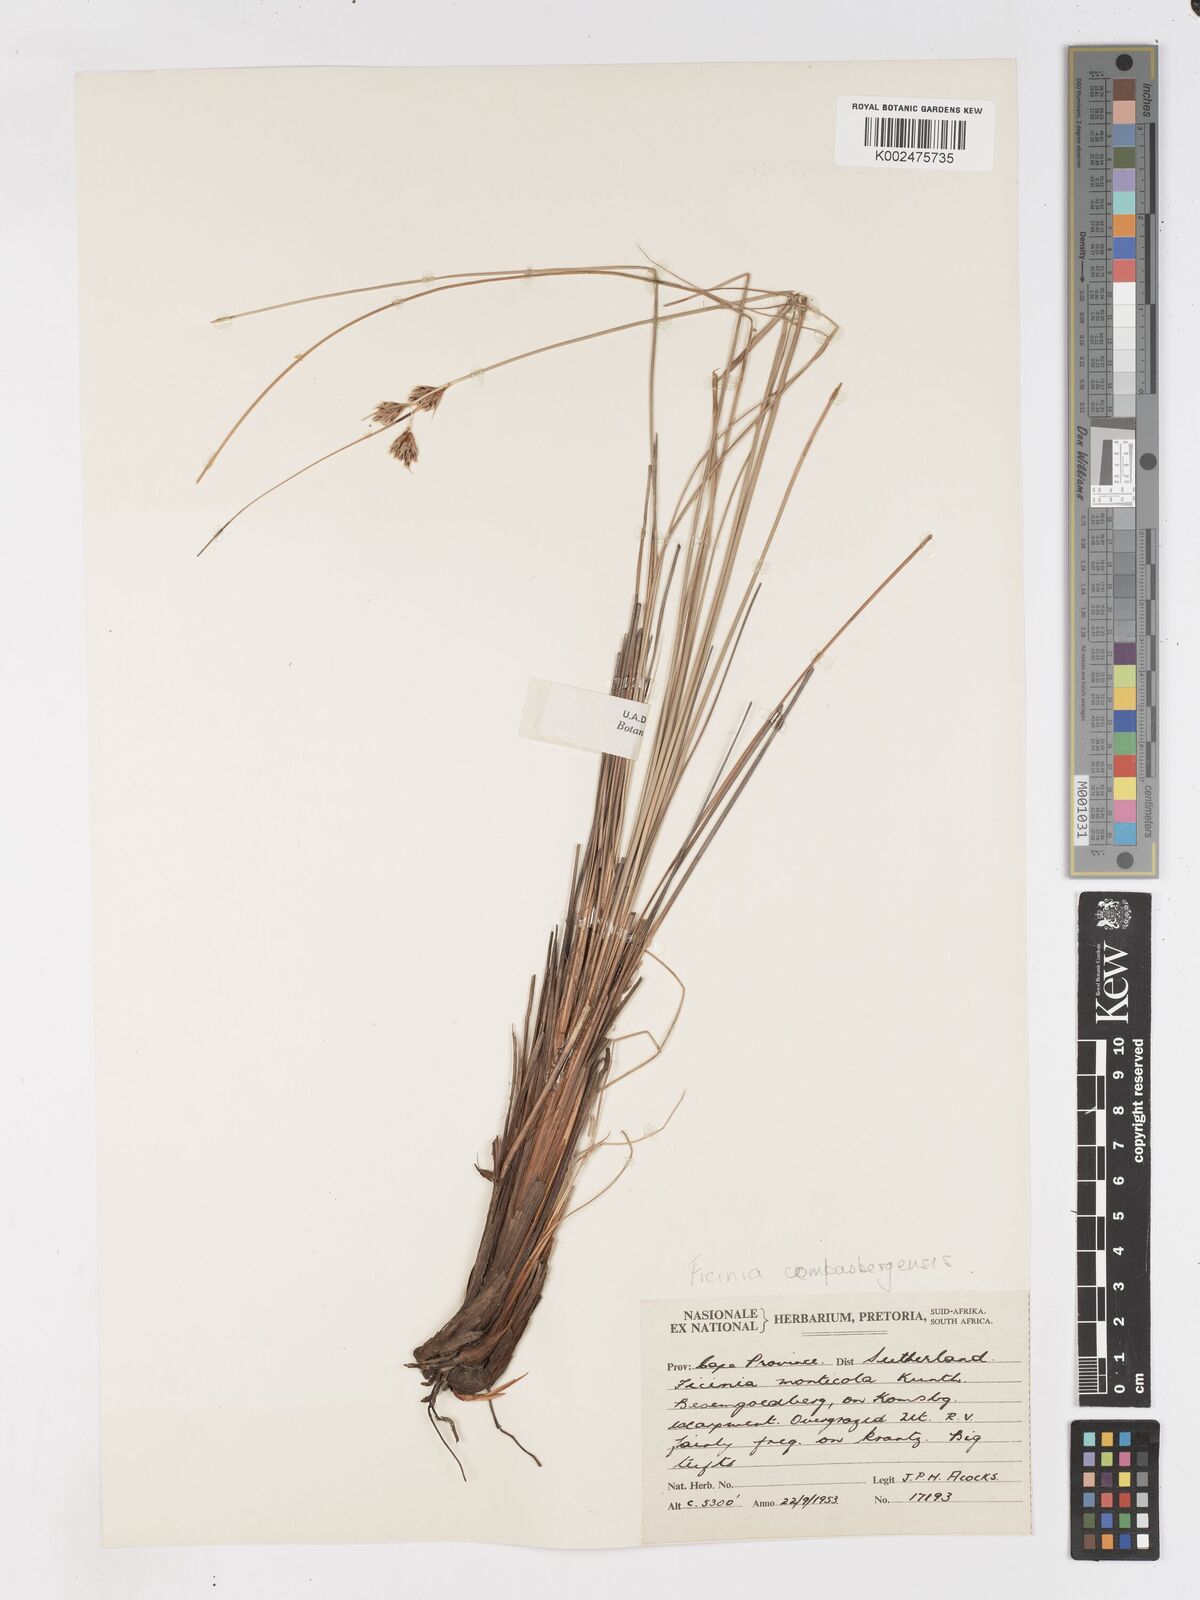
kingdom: Plantae
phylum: Tracheophyta
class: Liliopsida
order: Poales
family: Cyperaceae
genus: Ficinia
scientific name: Ficinia compasbergensis
